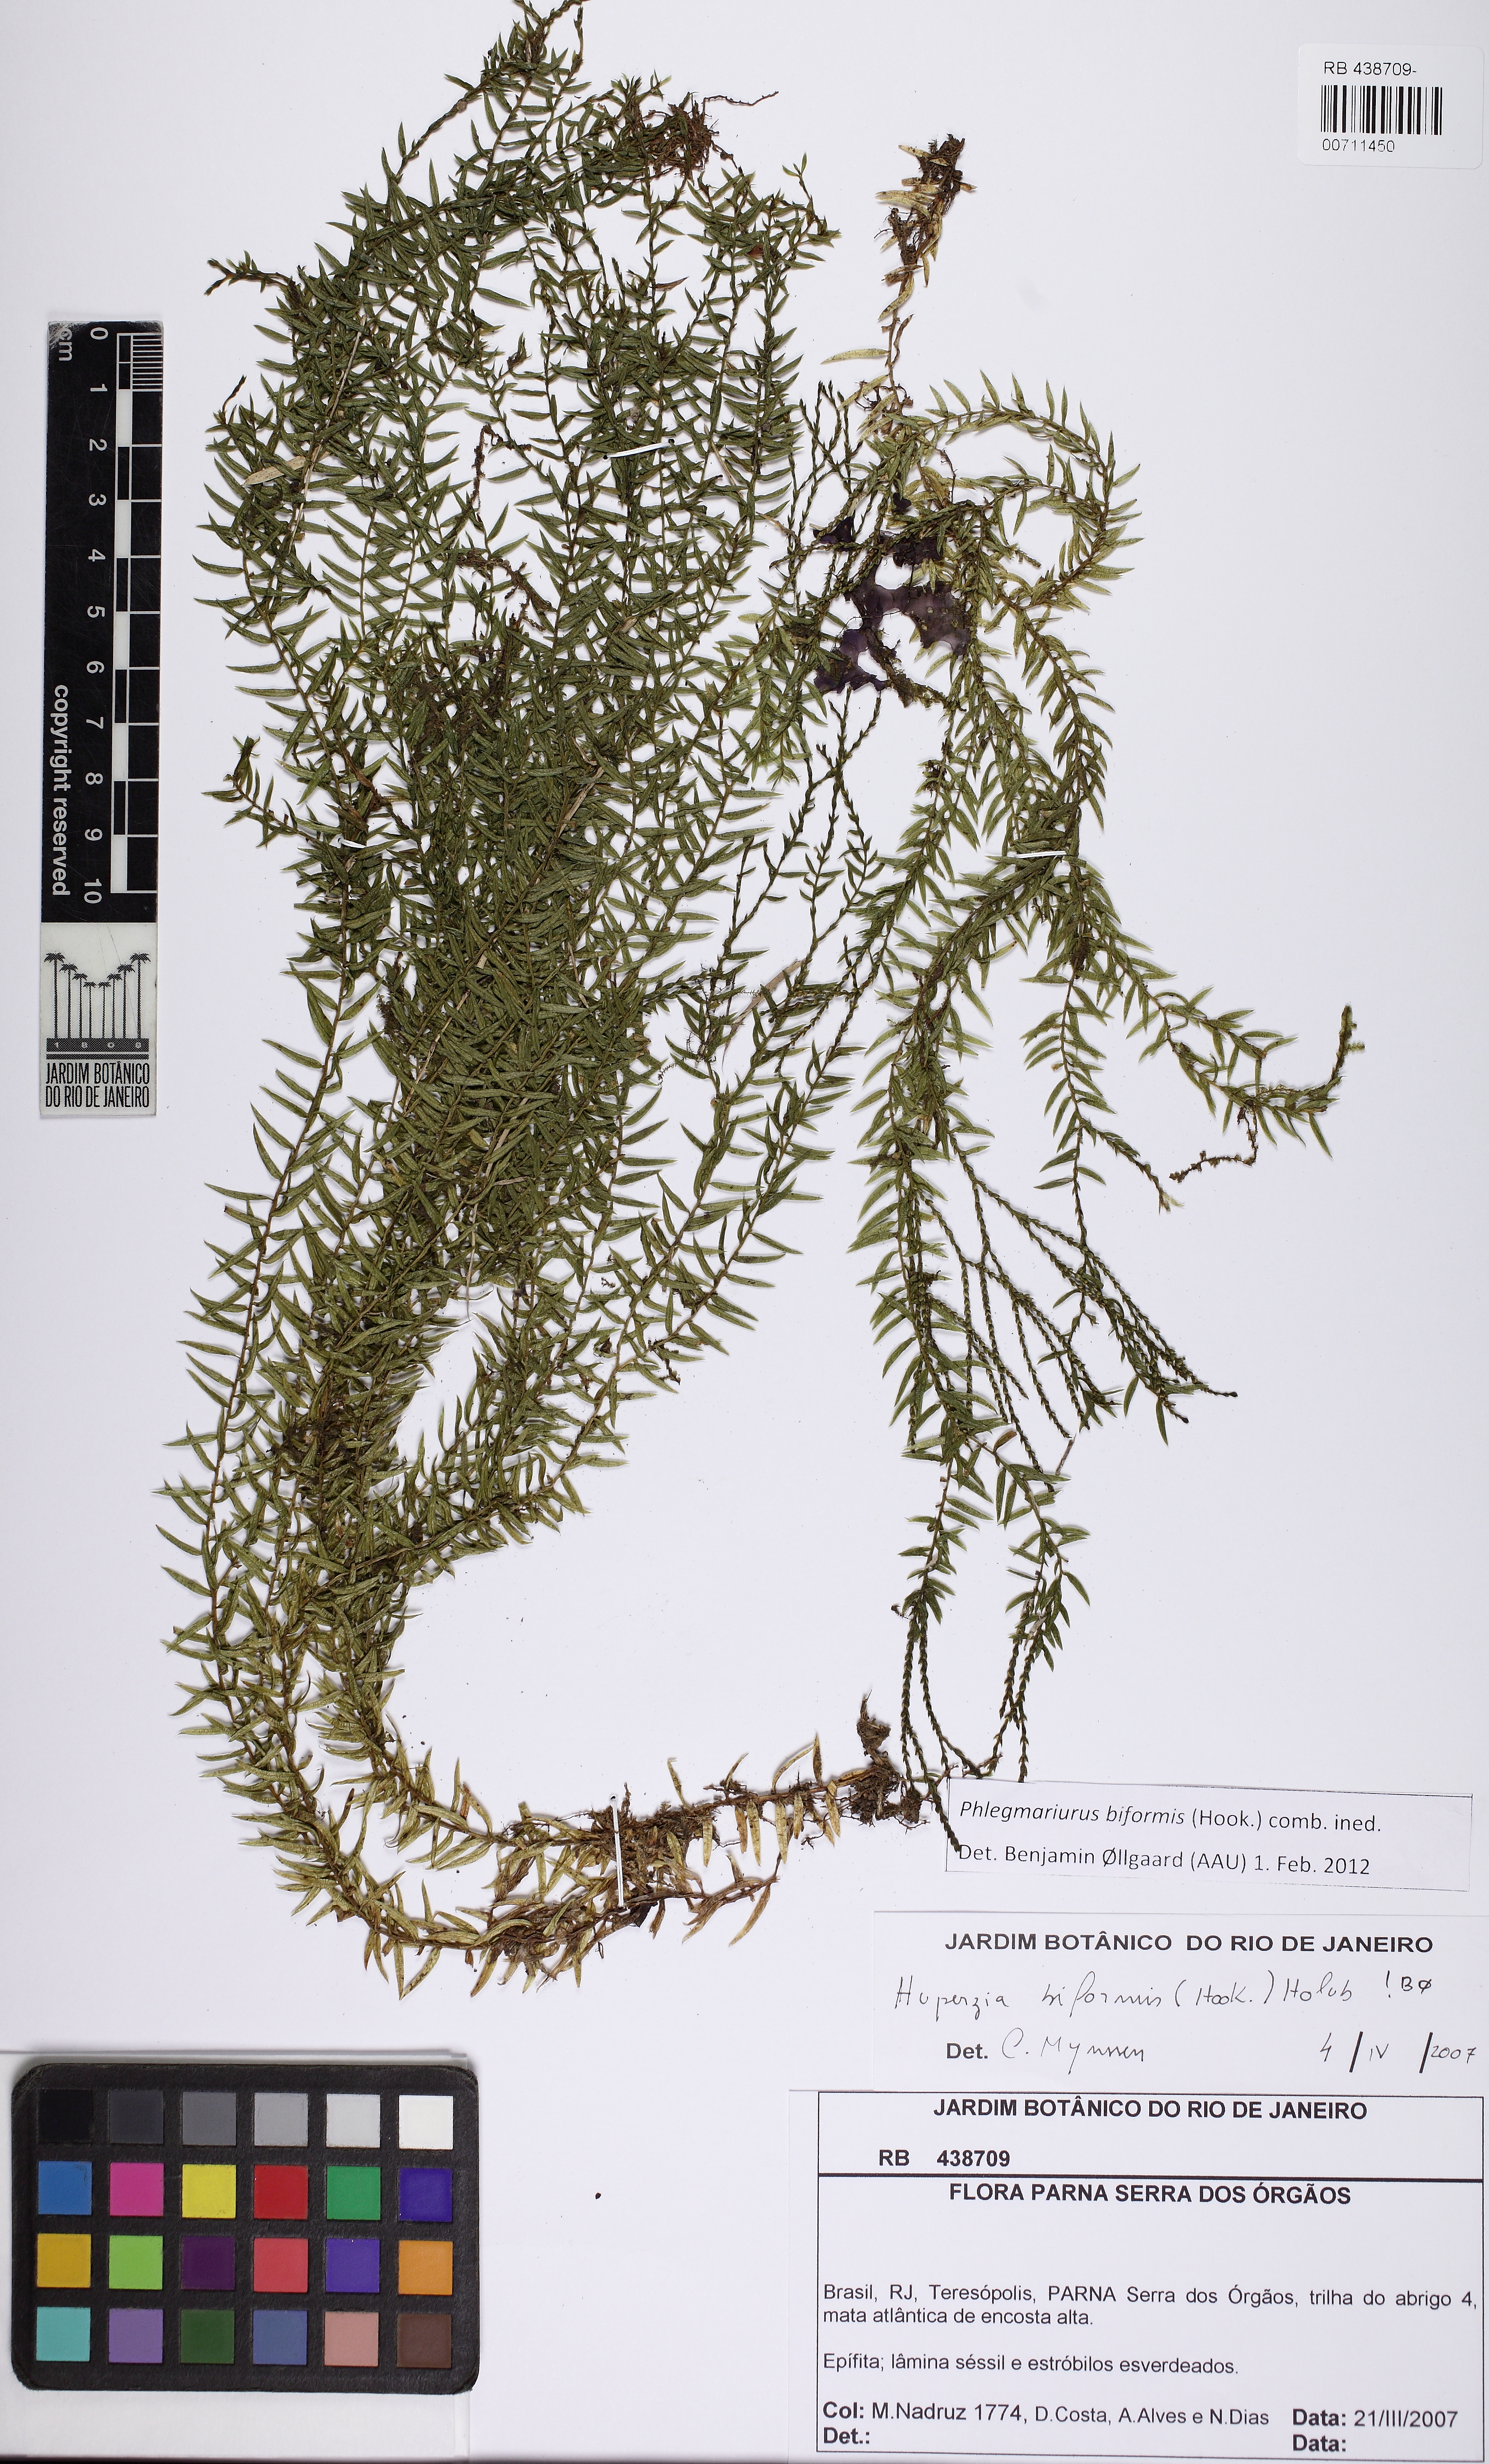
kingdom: Plantae
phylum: Tracheophyta
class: Lycopodiopsida
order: Lycopodiales
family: Lycopodiaceae
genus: Phlegmariurus
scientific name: Phlegmariurus biformis
